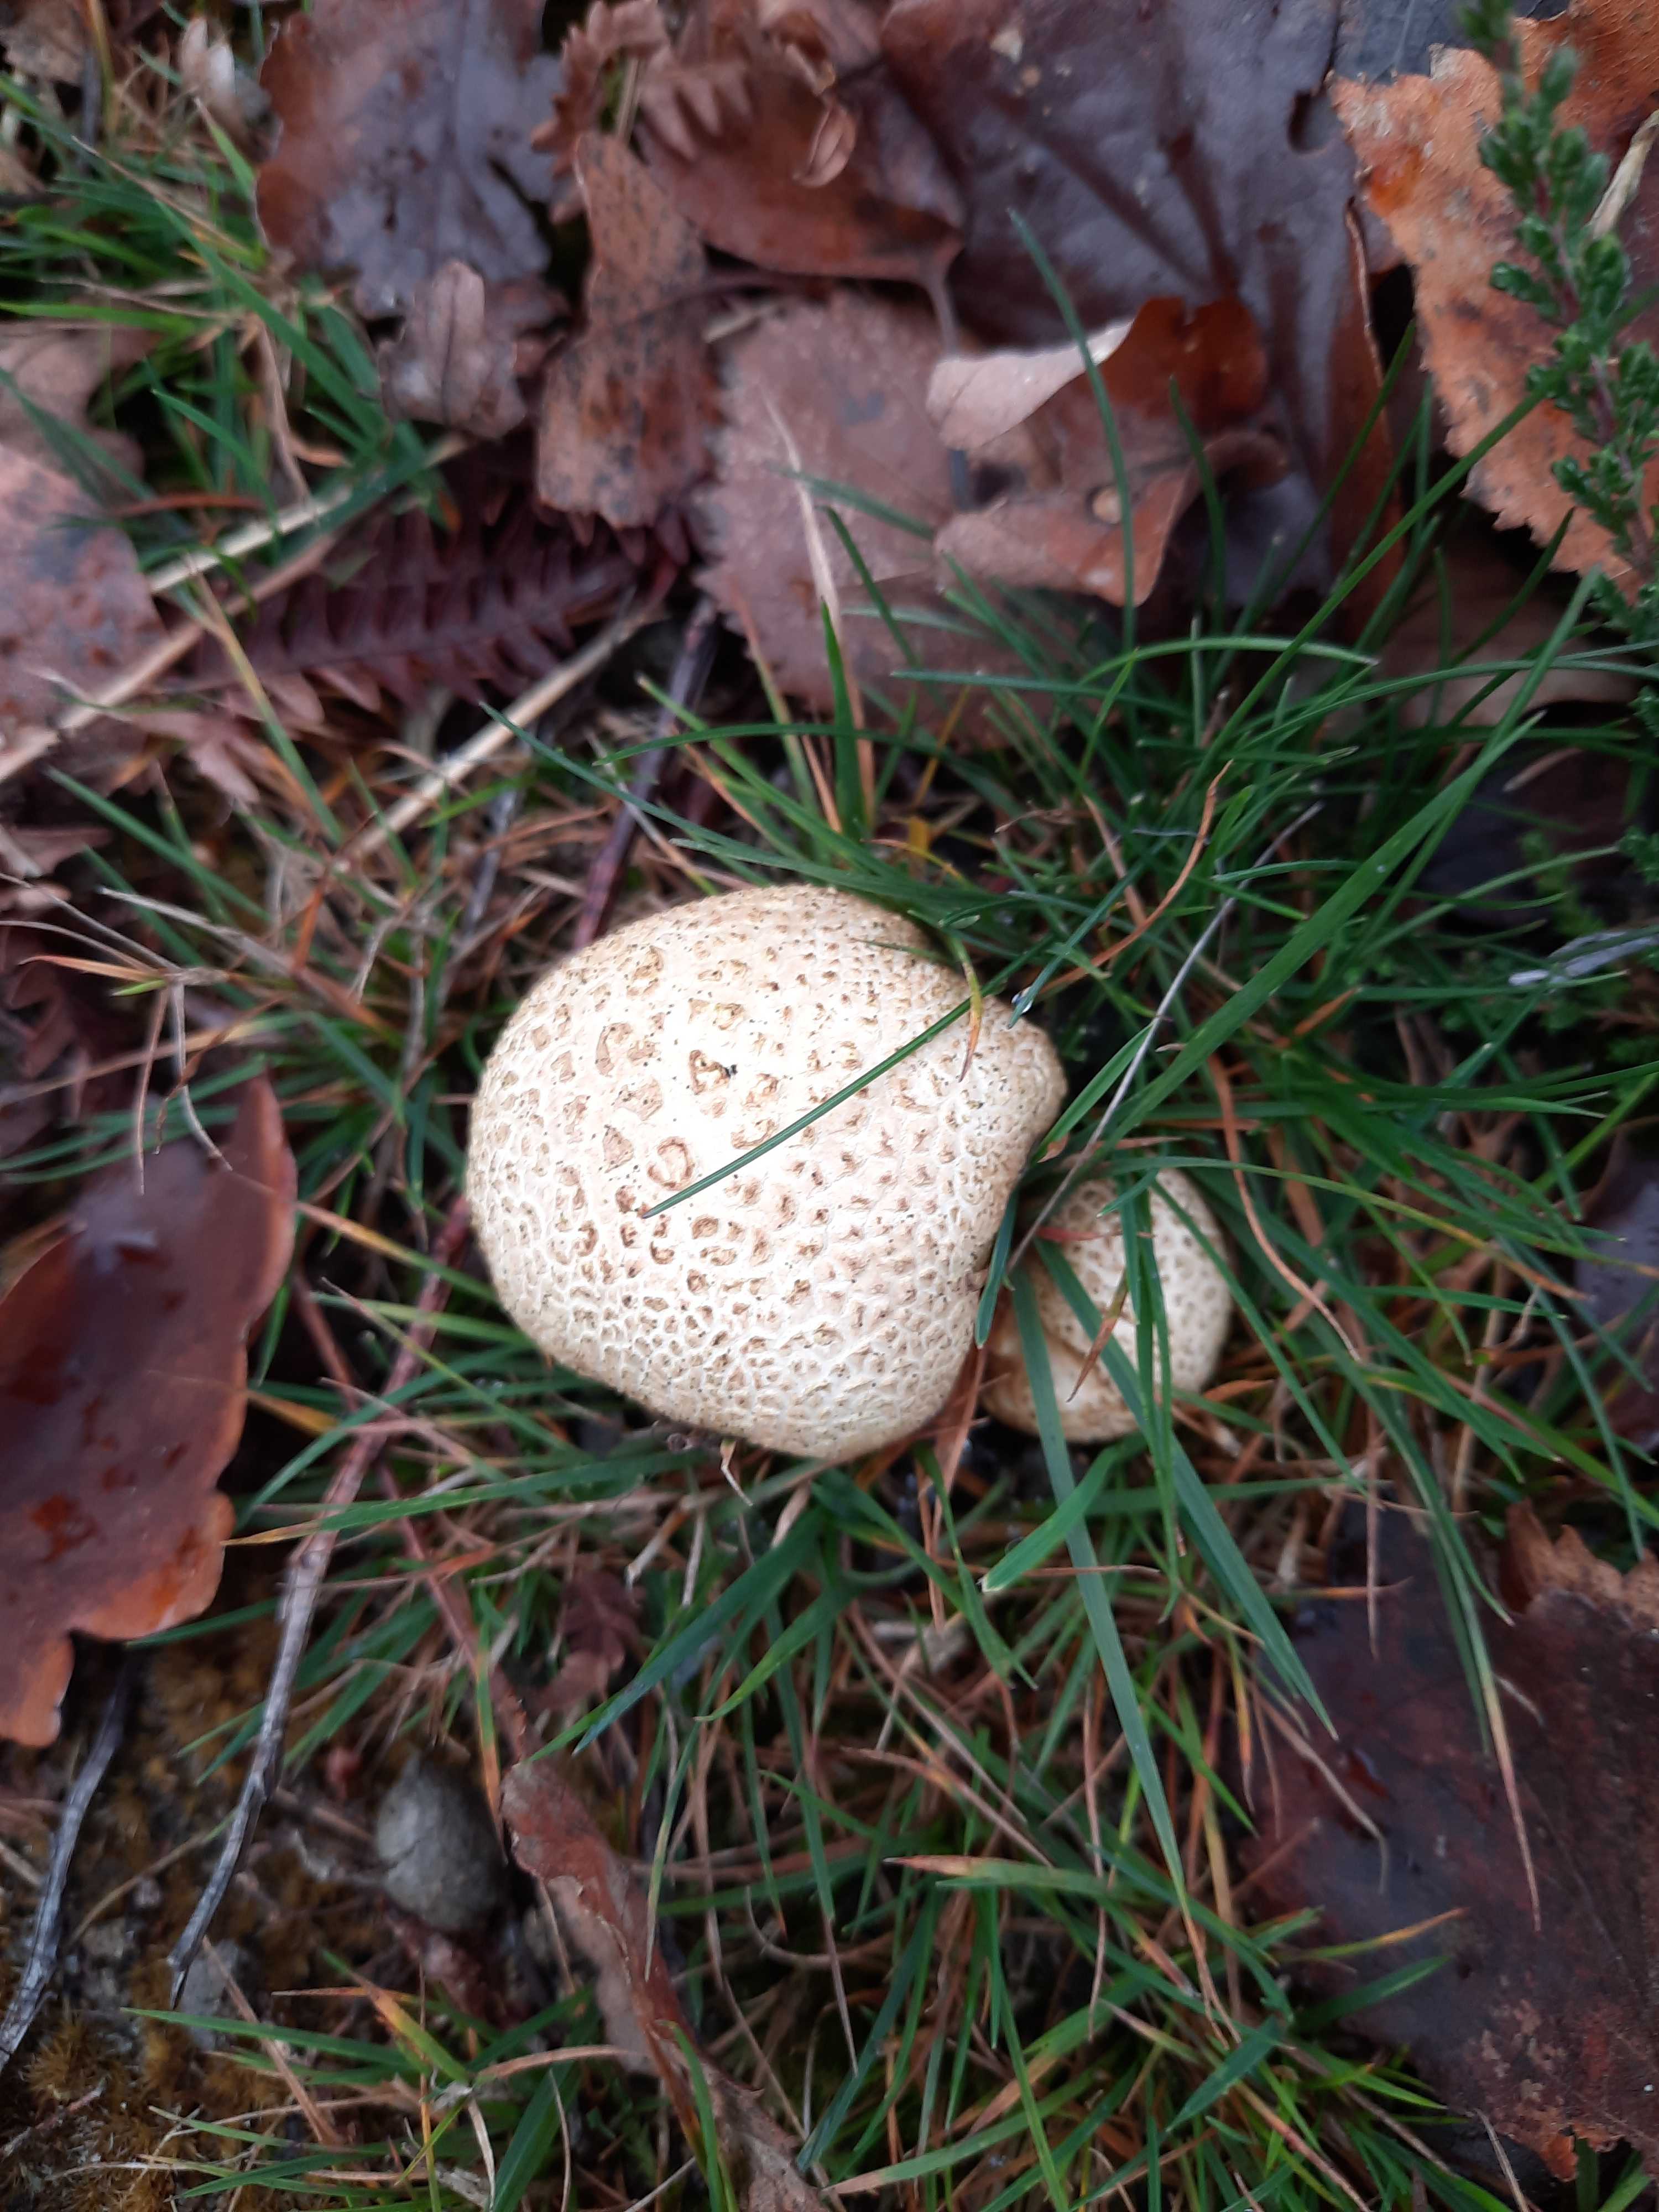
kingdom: Fungi
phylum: Basidiomycota
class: Agaricomycetes
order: Boletales
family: Sclerodermataceae
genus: Scleroderma
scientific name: Scleroderma citrinum
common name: almindelig bruskbold
